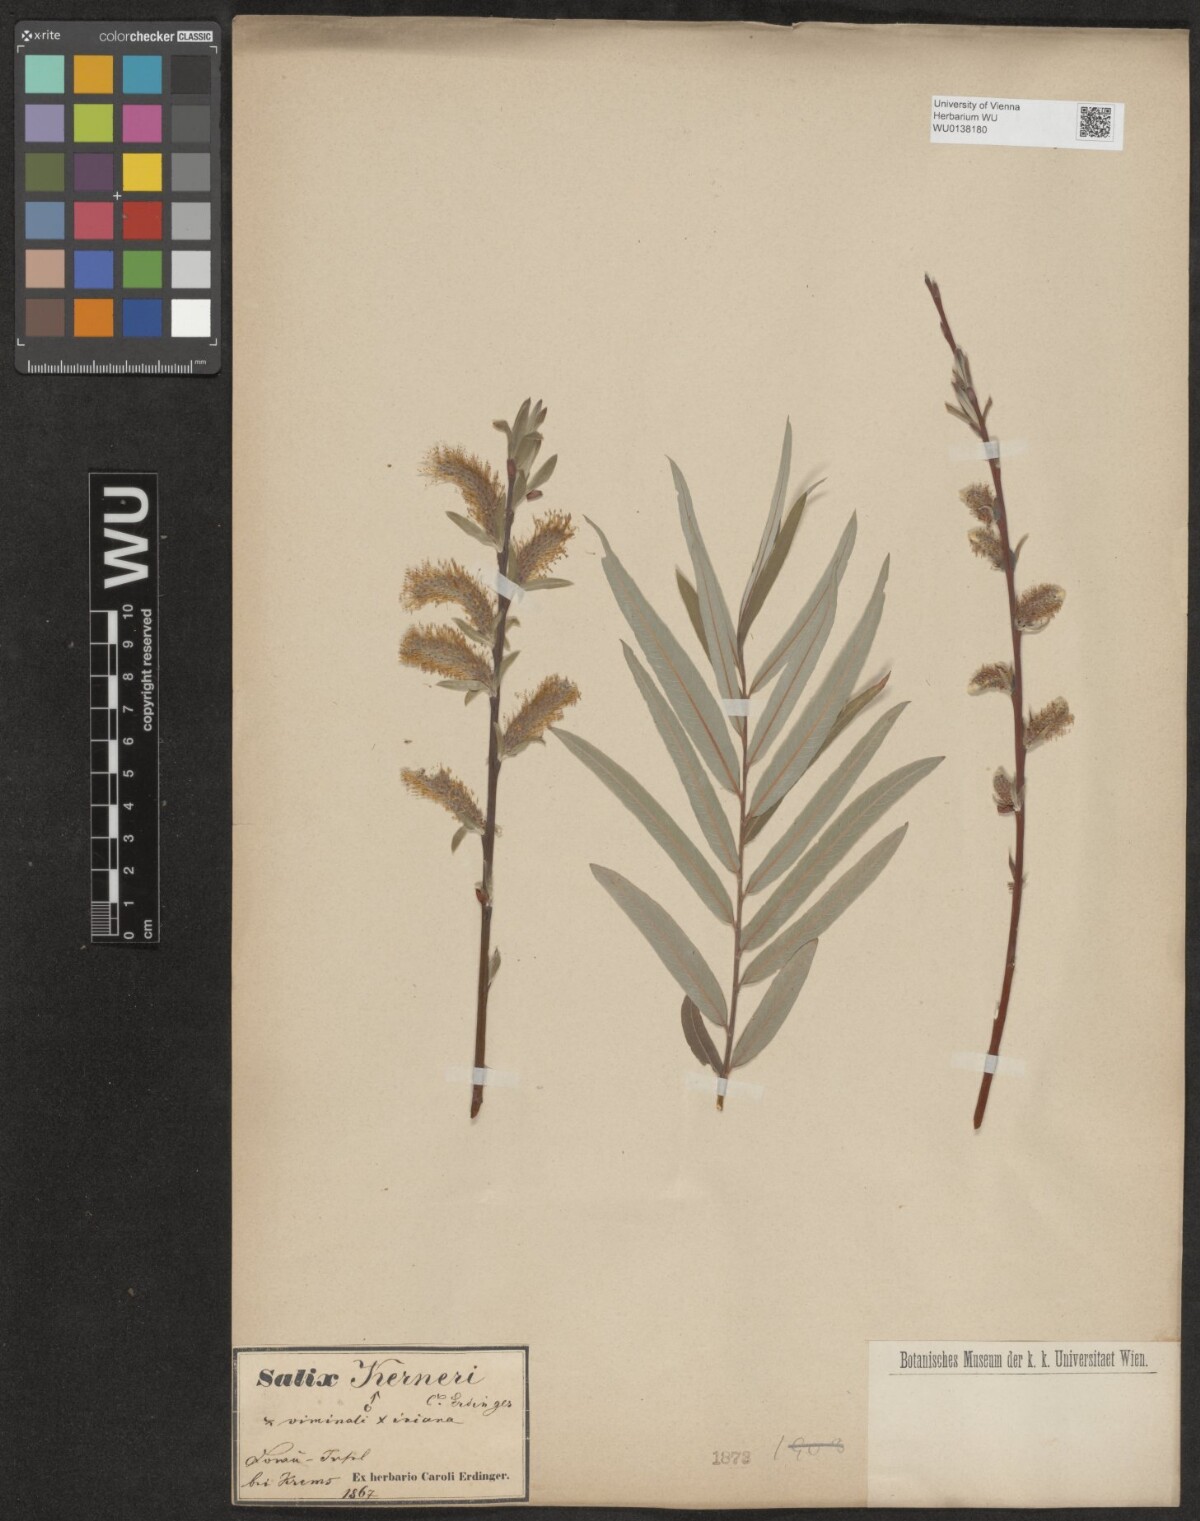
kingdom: Plantae
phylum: Tracheophyta
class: Magnoliopsida
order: Malpighiales
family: Salicaceae
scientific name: Salicaceae
